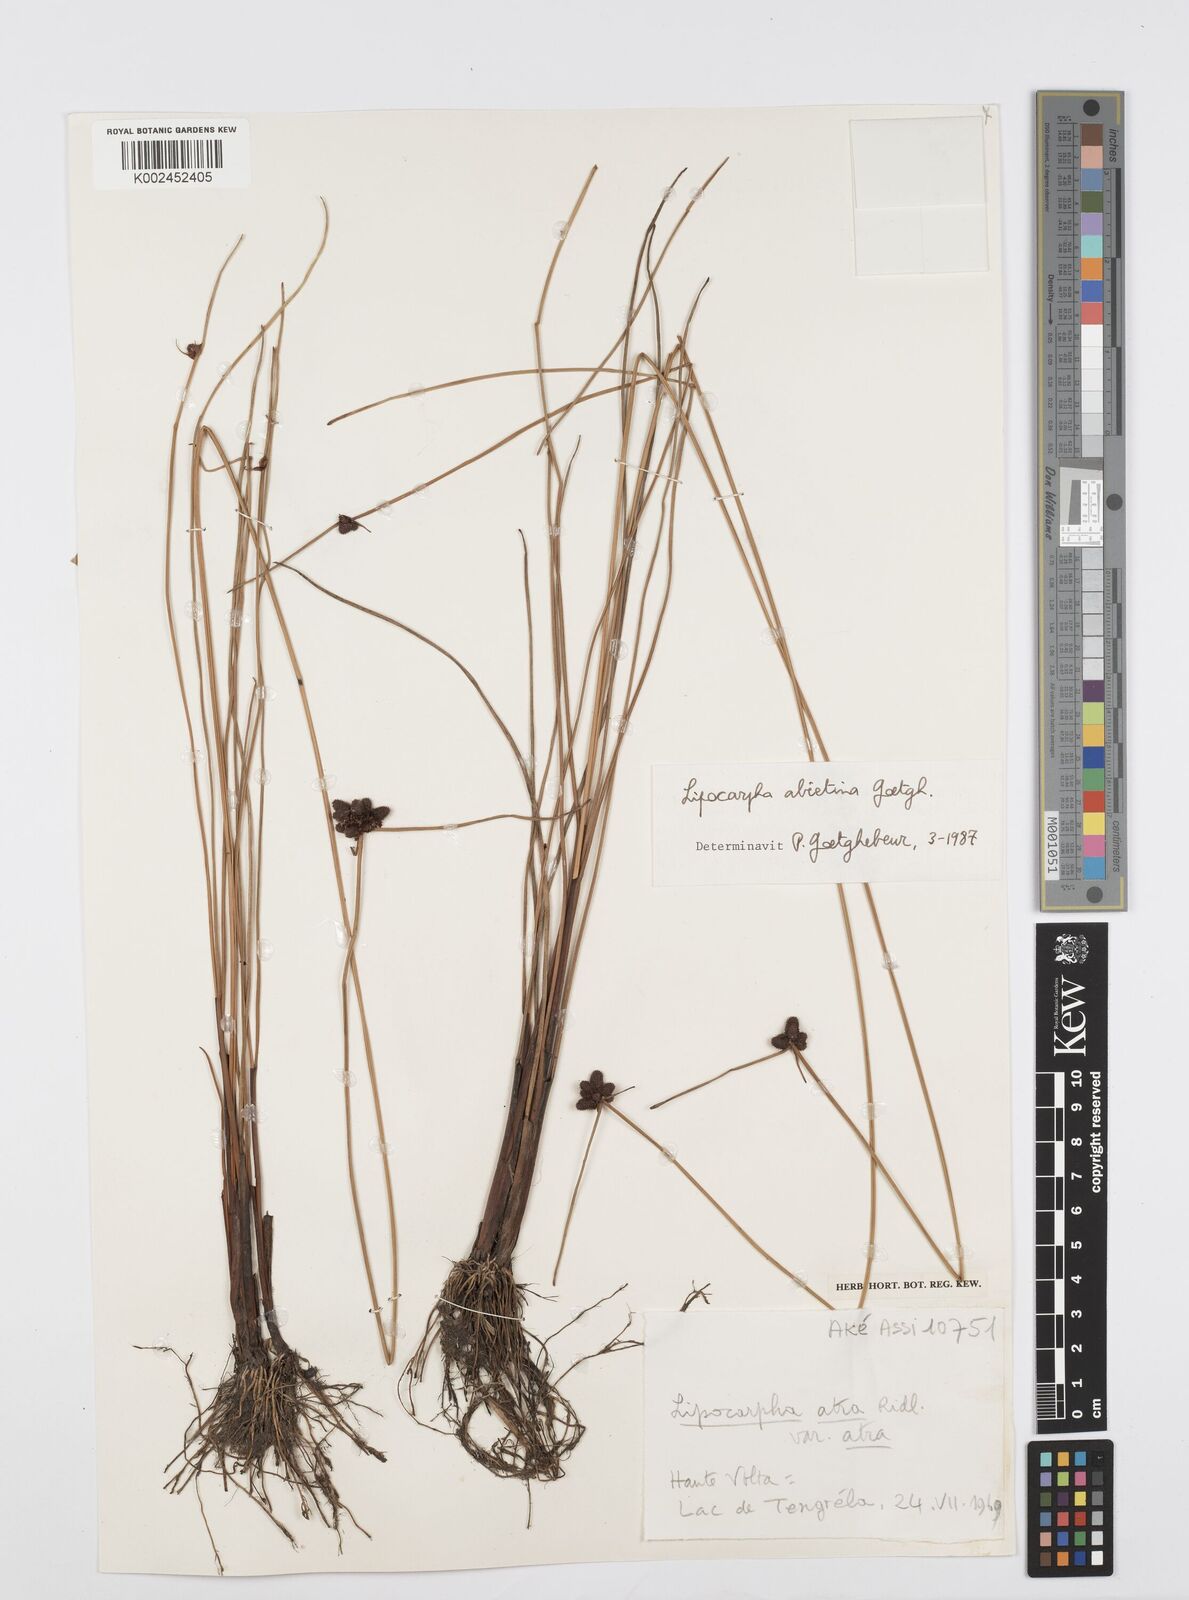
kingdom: Plantae
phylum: Tracheophyta
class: Liliopsida
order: Poales
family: Cyperaceae
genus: Cyperus
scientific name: Cyperus
